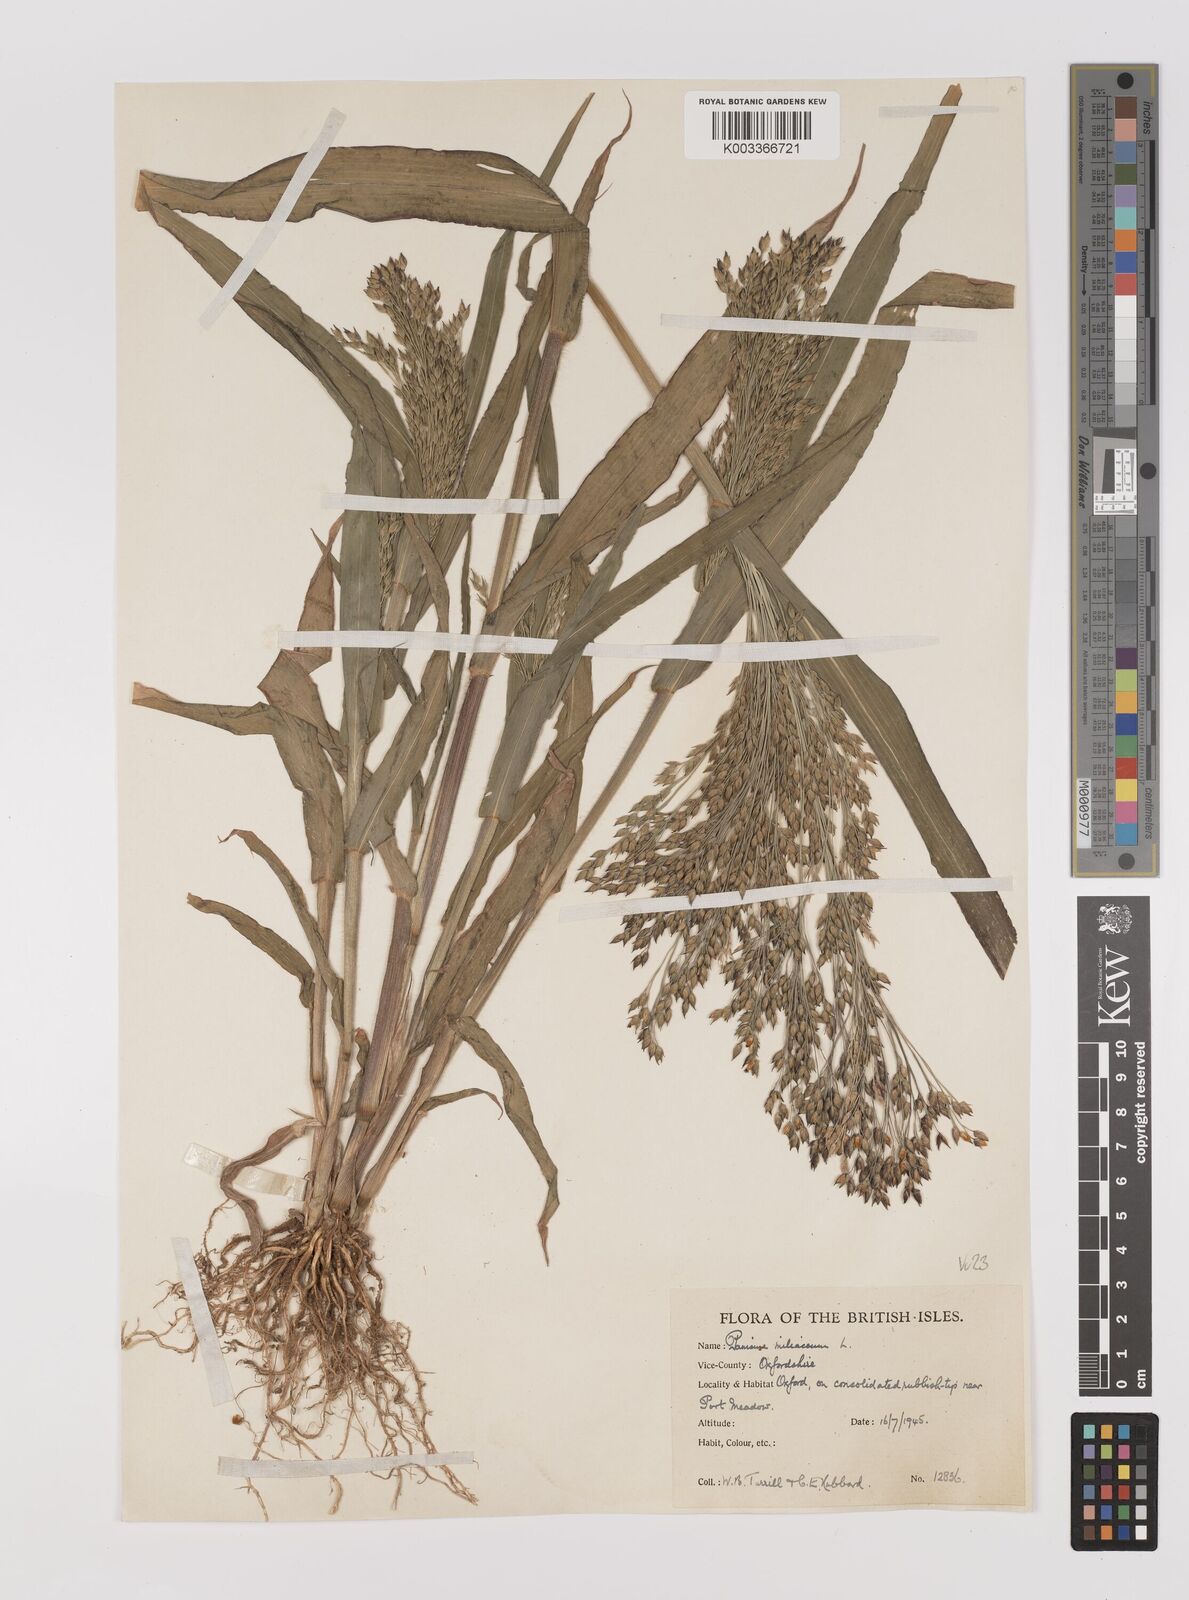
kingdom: Plantae
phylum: Tracheophyta
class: Liliopsida
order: Poales
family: Poaceae
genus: Panicum
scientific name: Panicum miliaceum
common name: Common millet
